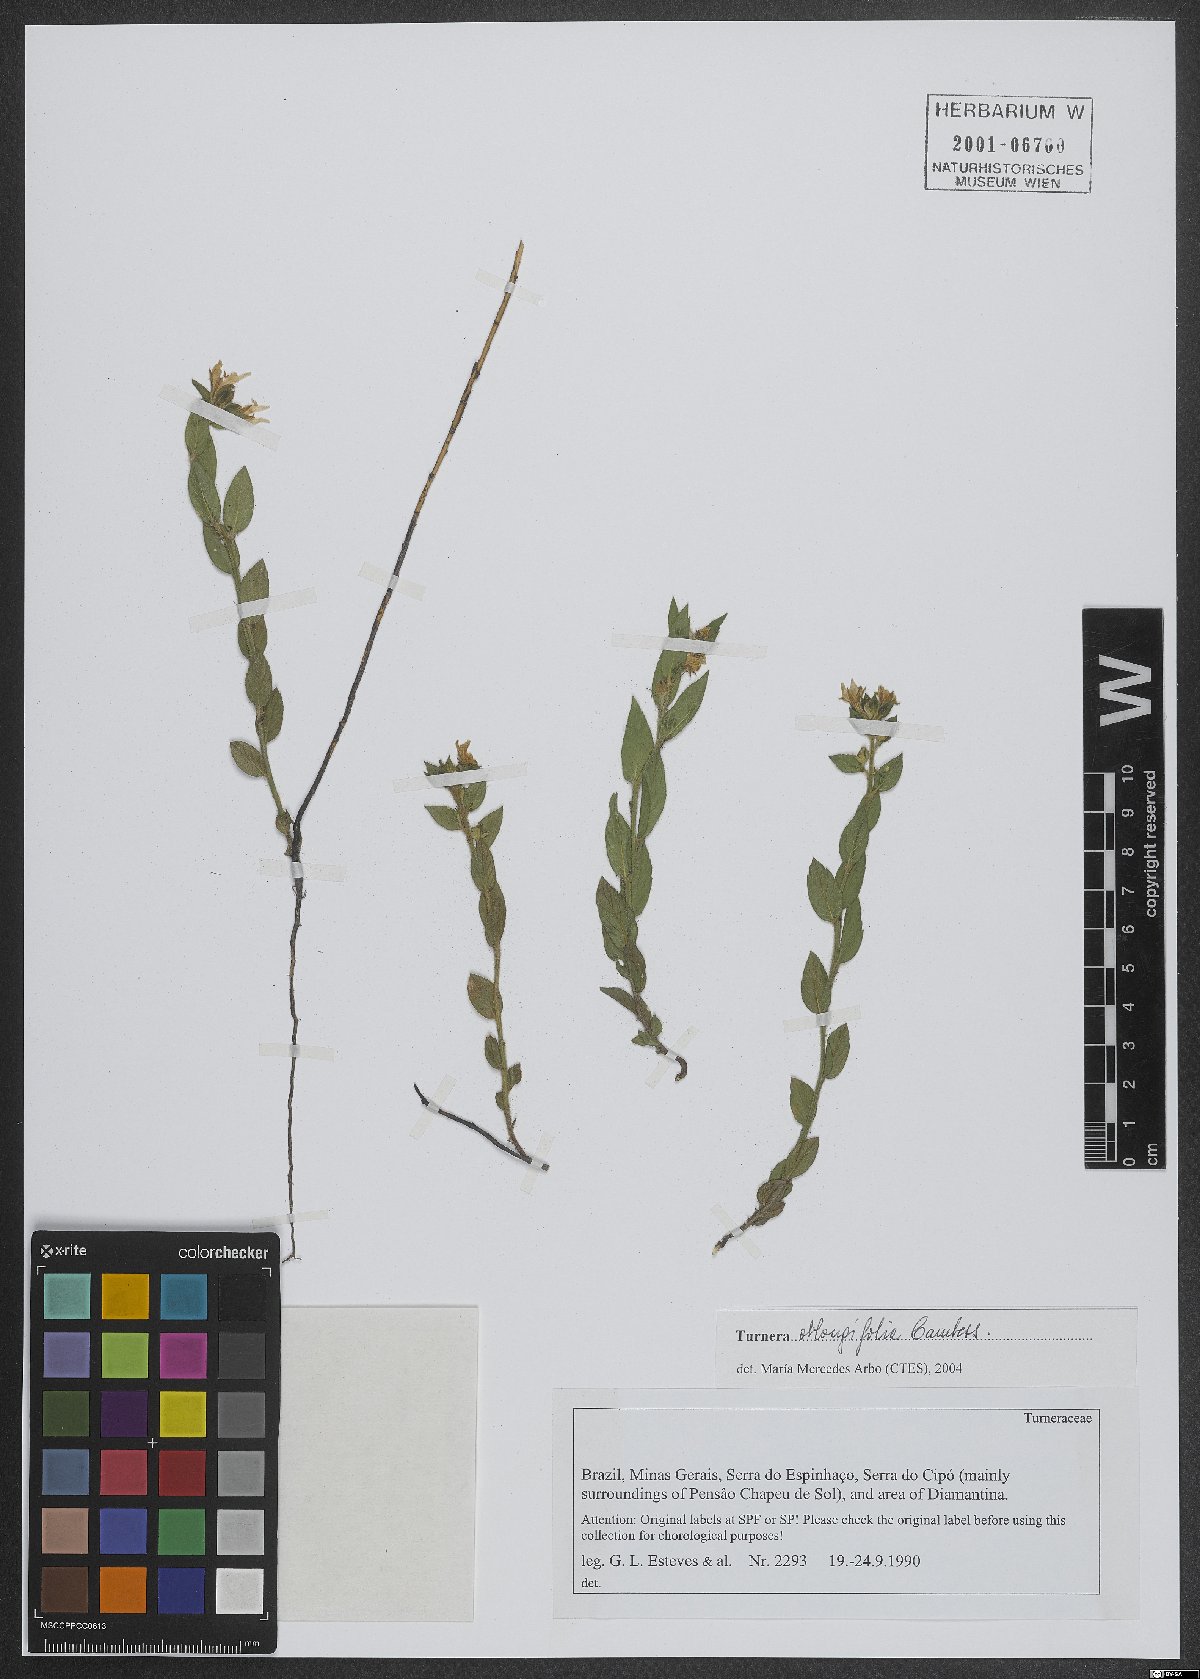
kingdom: Plantae
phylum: Tracheophyta
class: Magnoliopsida
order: Malpighiales
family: Turneraceae
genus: Turnera
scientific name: Turnera oblongifolia
